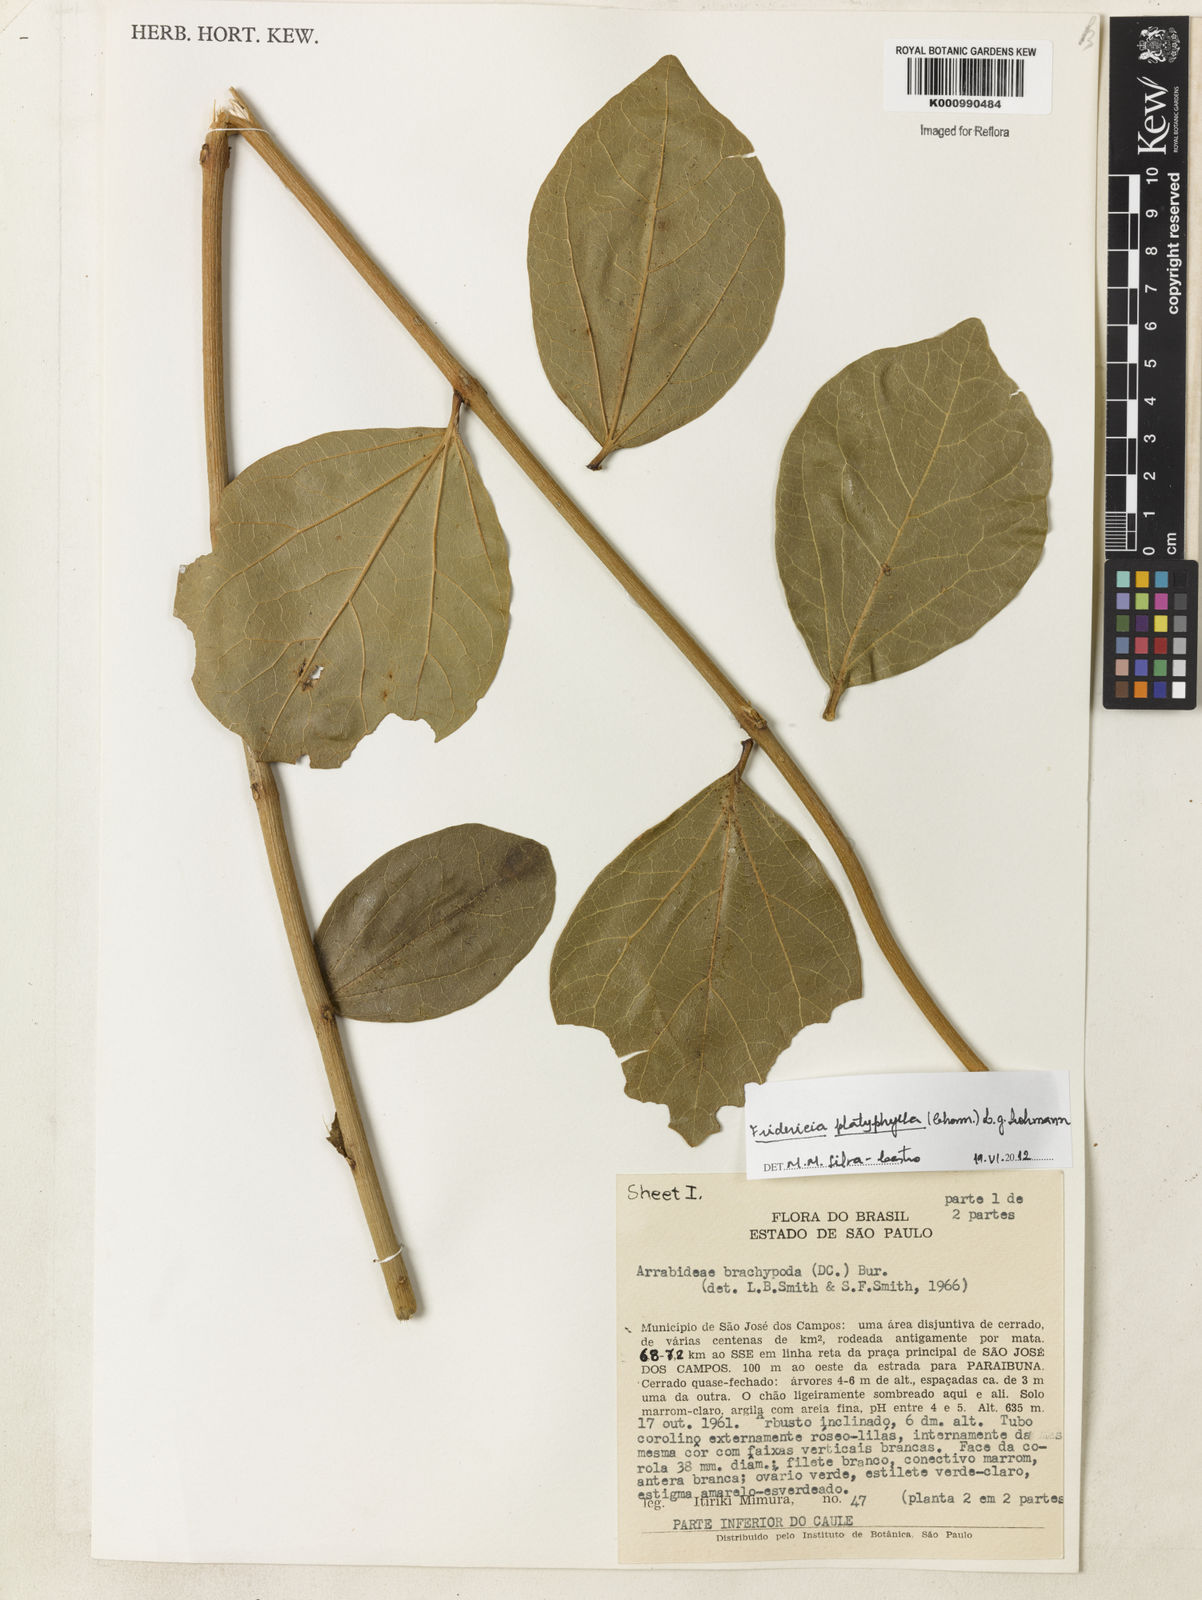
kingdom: Plantae
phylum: Tracheophyta
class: Magnoliopsida
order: Lamiales
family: Bignoniaceae
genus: Fridericia
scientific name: Fridericia platyphylla
